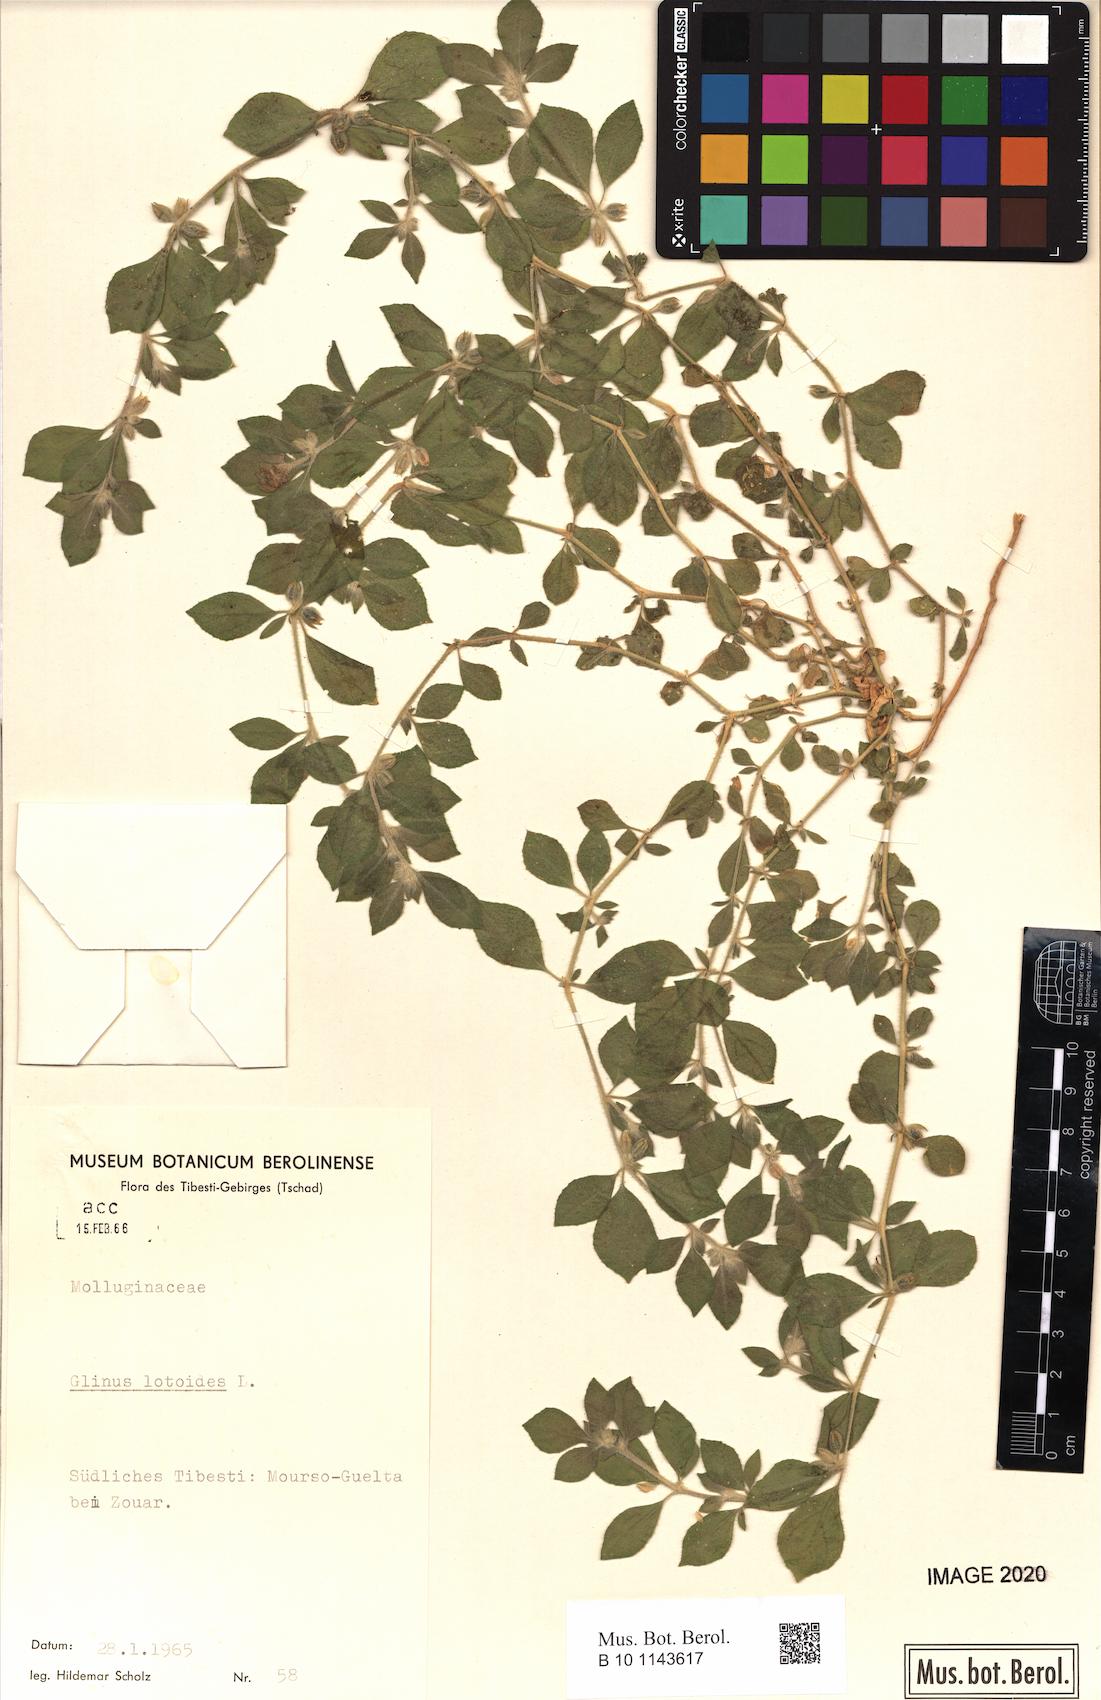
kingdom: Plantae
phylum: Tracheophyta
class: Magnoliopsida
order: Caryophyllales
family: Molluginaceae
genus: Glinus
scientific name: Glinus lotoides
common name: Lotus sweetjuice
